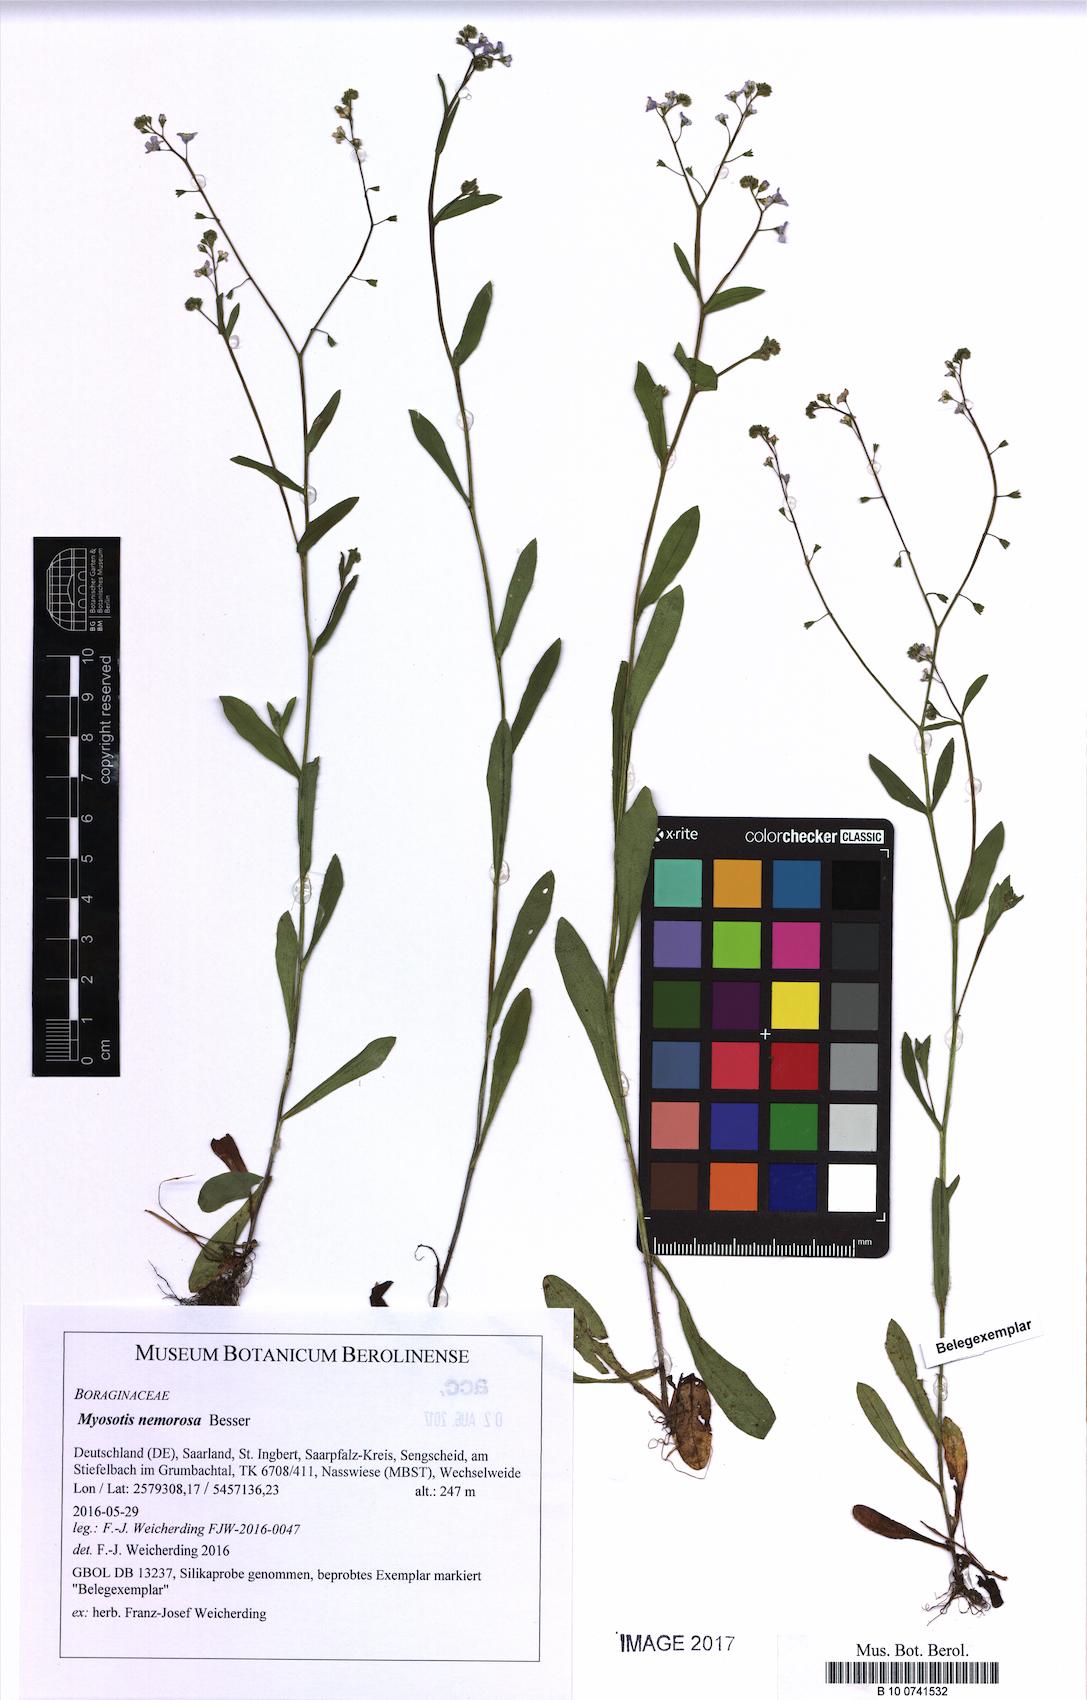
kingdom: Plantae
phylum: Tracheophyta
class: Magnoliopsida
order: Boraginales
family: Boraginaceae
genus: Myosotis
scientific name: Myosotis nemorosa
